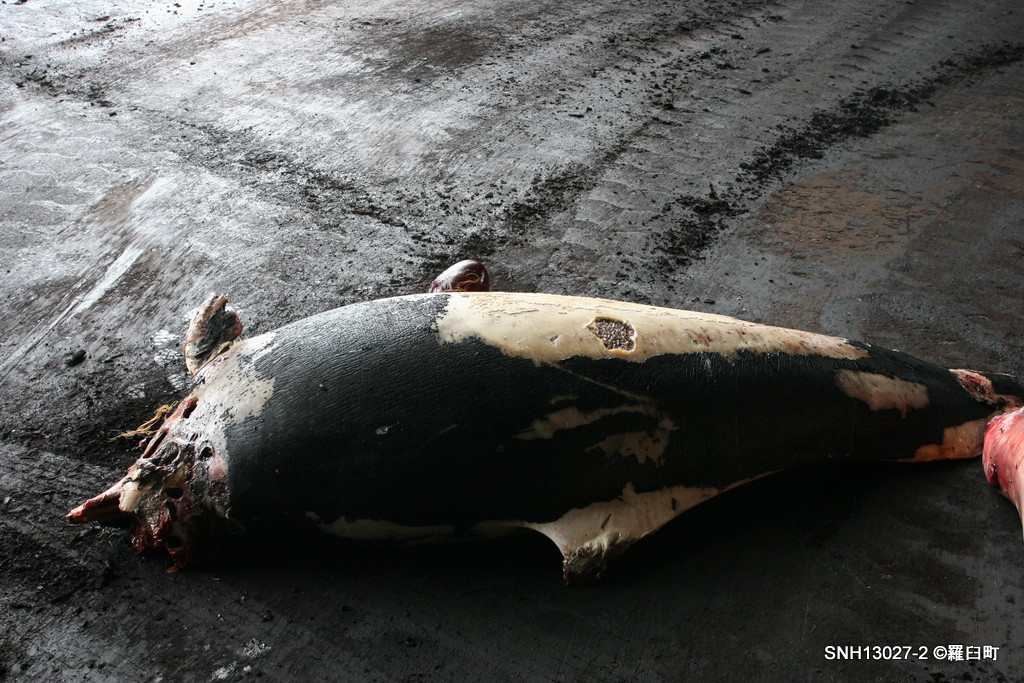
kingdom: Animalia
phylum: Chordata
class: Mammalia
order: Cetacea
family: Phocoenidae
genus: Phocoenoides
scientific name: Phocoenoides dalli
